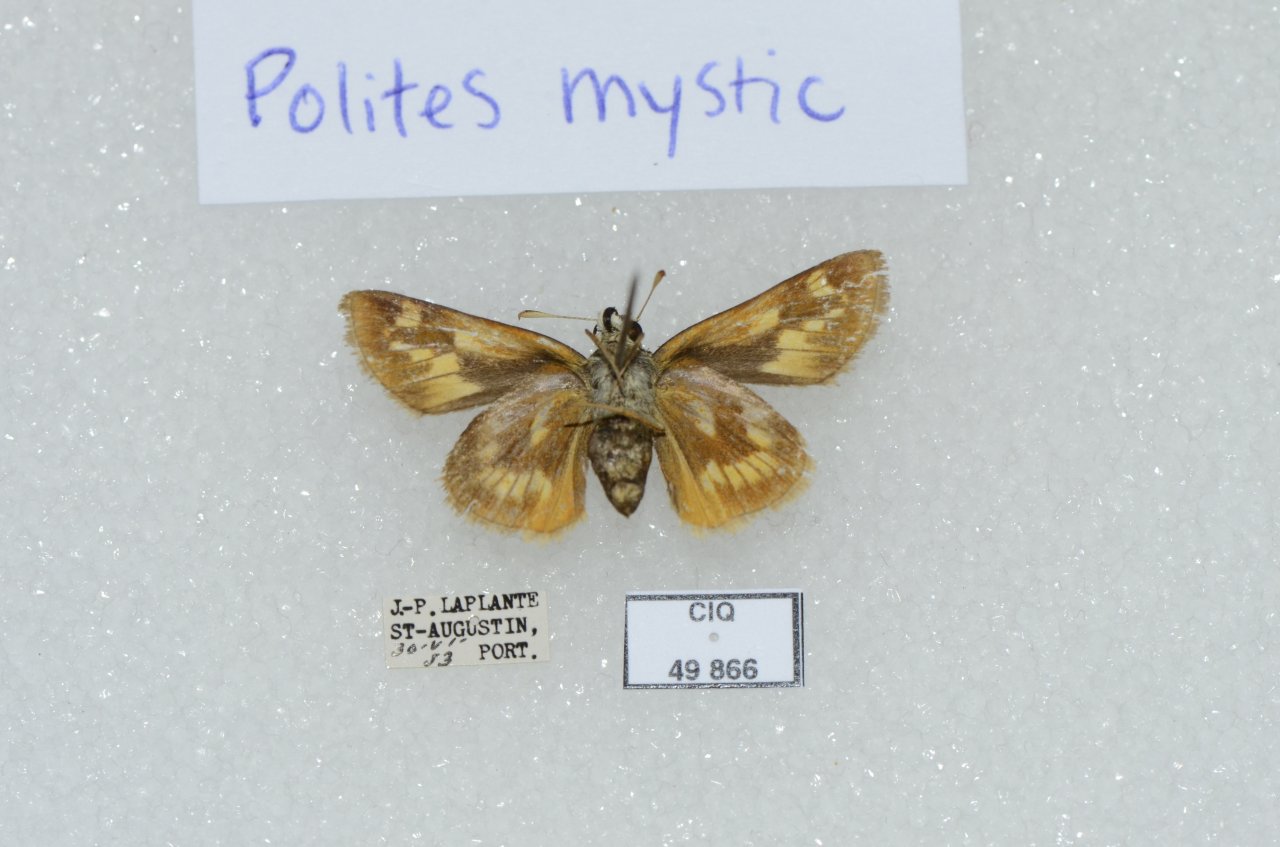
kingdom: Animalia
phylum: Arthropoda
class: Insecta
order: Lepidoptera
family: Hesperiidae
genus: Polites
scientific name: Polites
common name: Long Dash Skipper
